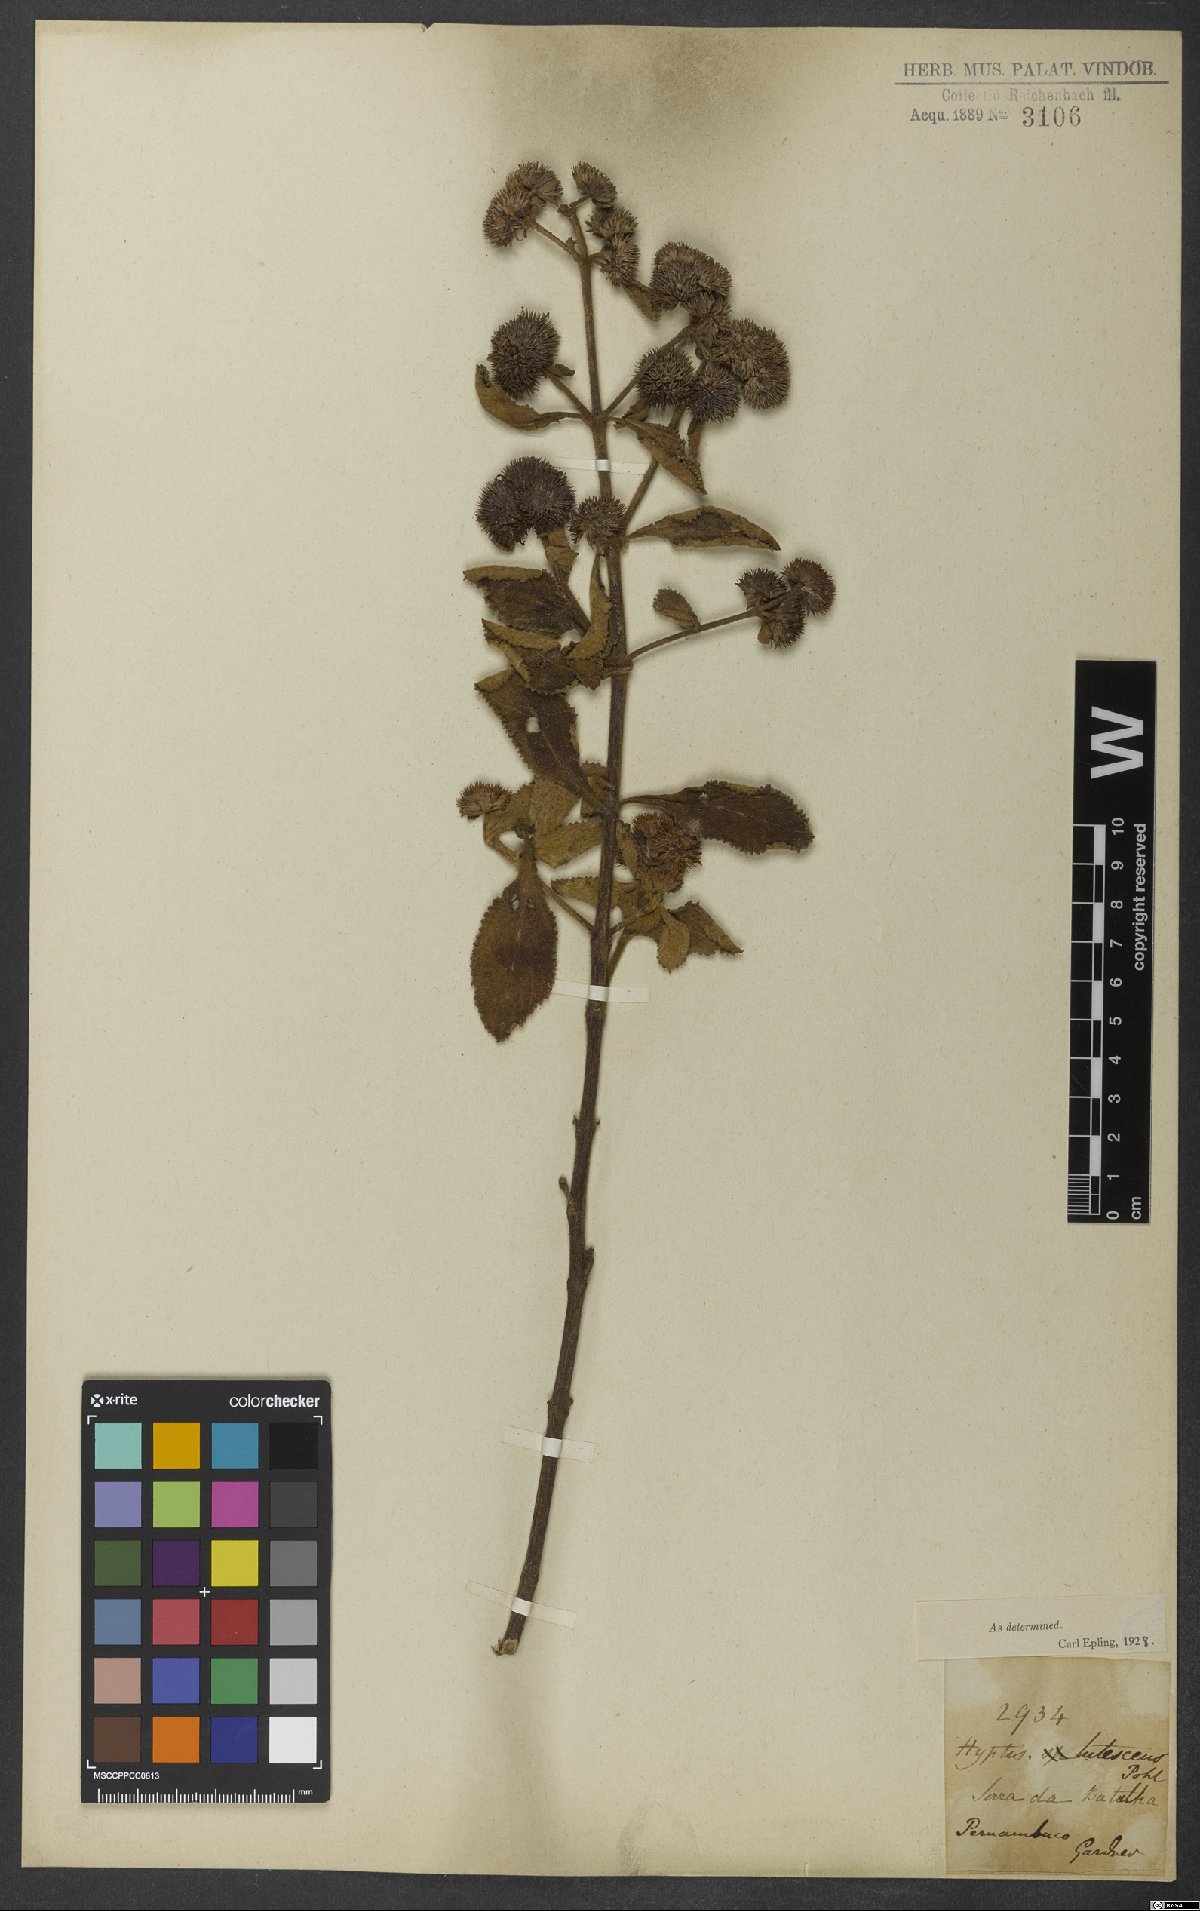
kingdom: Plantae
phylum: Tracheophyta
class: Magnoliopsida
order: Lamiales
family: Lamiaceae
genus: Hyptis
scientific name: Hyptis lutescens
